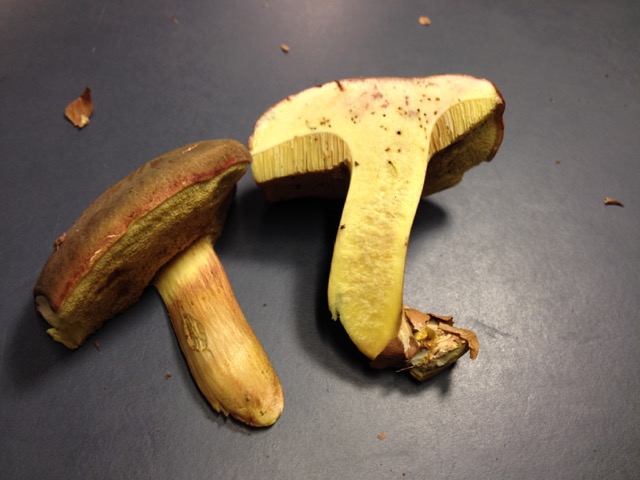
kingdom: Fungi
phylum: Basidiomycota
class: Agaricomycetes
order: Boletales
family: Boletaceae
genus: Xerocomellus
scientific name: Xerocomellus pruinatus
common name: dugget rørhat
